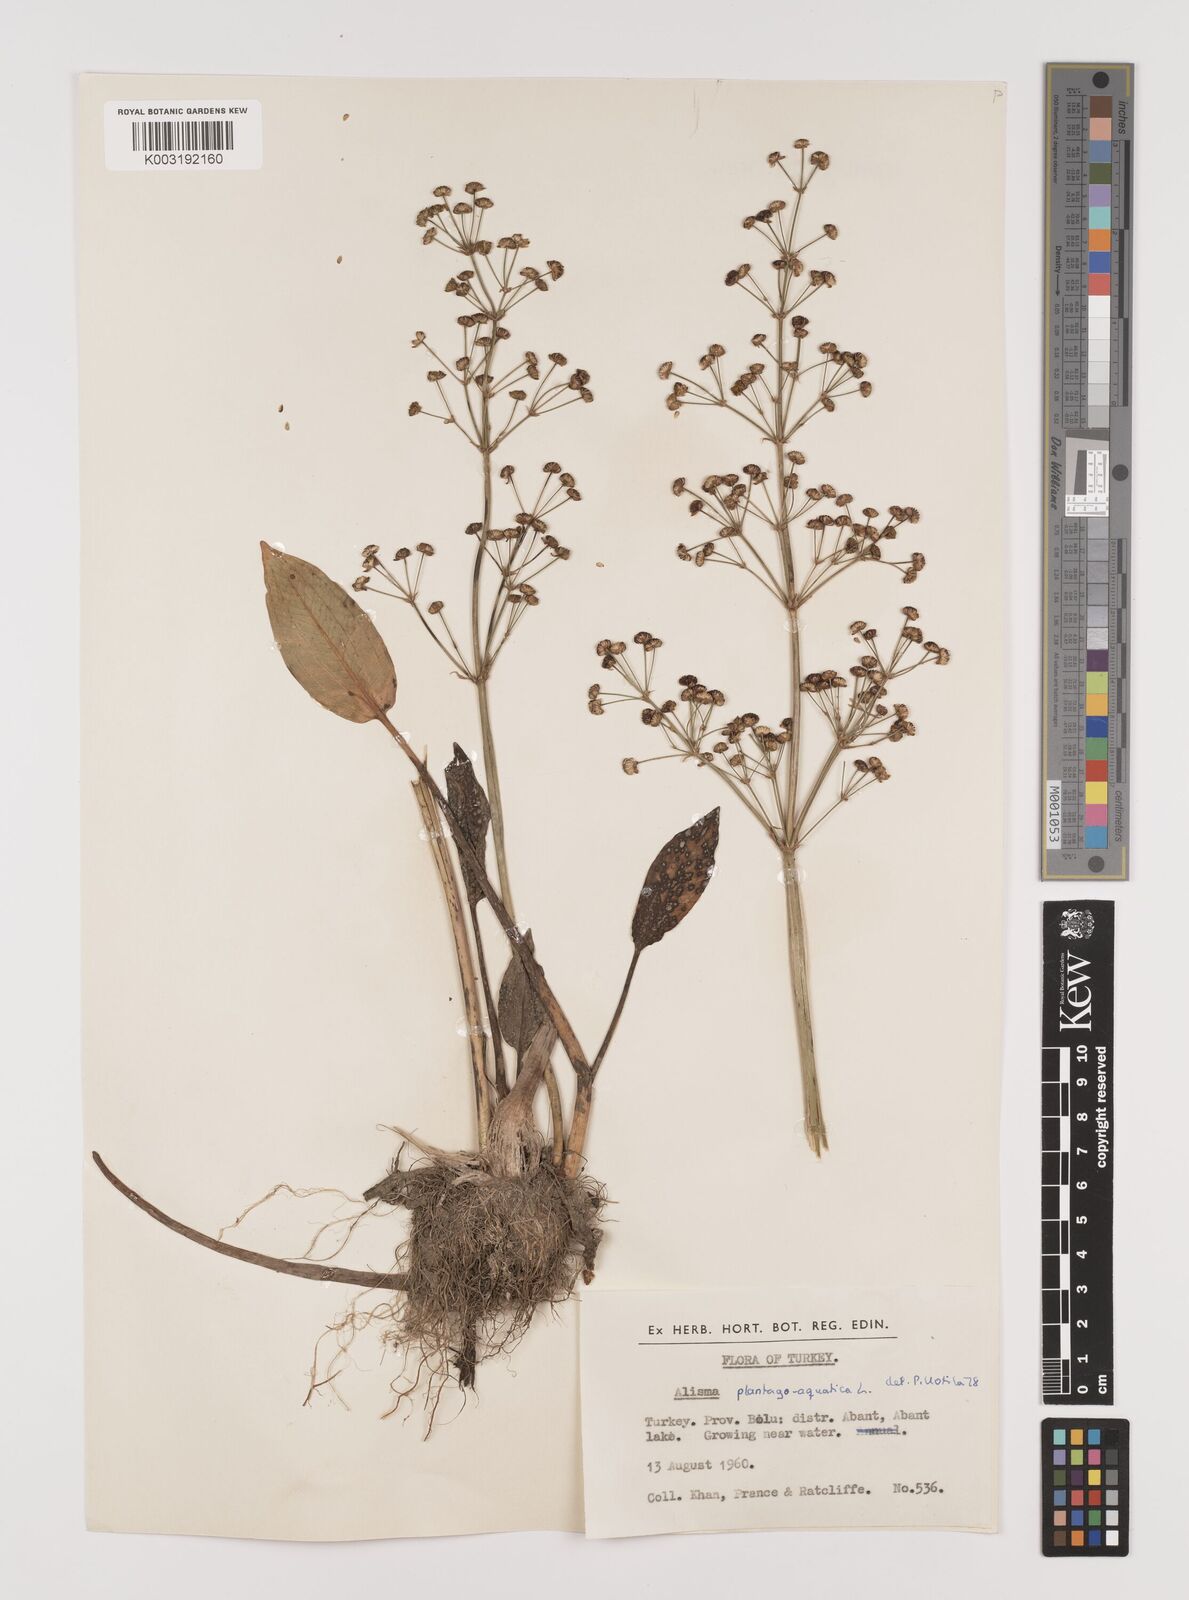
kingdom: Plantae
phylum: Tracheophyta
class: Liliopsida
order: Alismatales
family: Alismataceae
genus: Alisma
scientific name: Alisma plantago-aquatica
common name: Water-plantain
